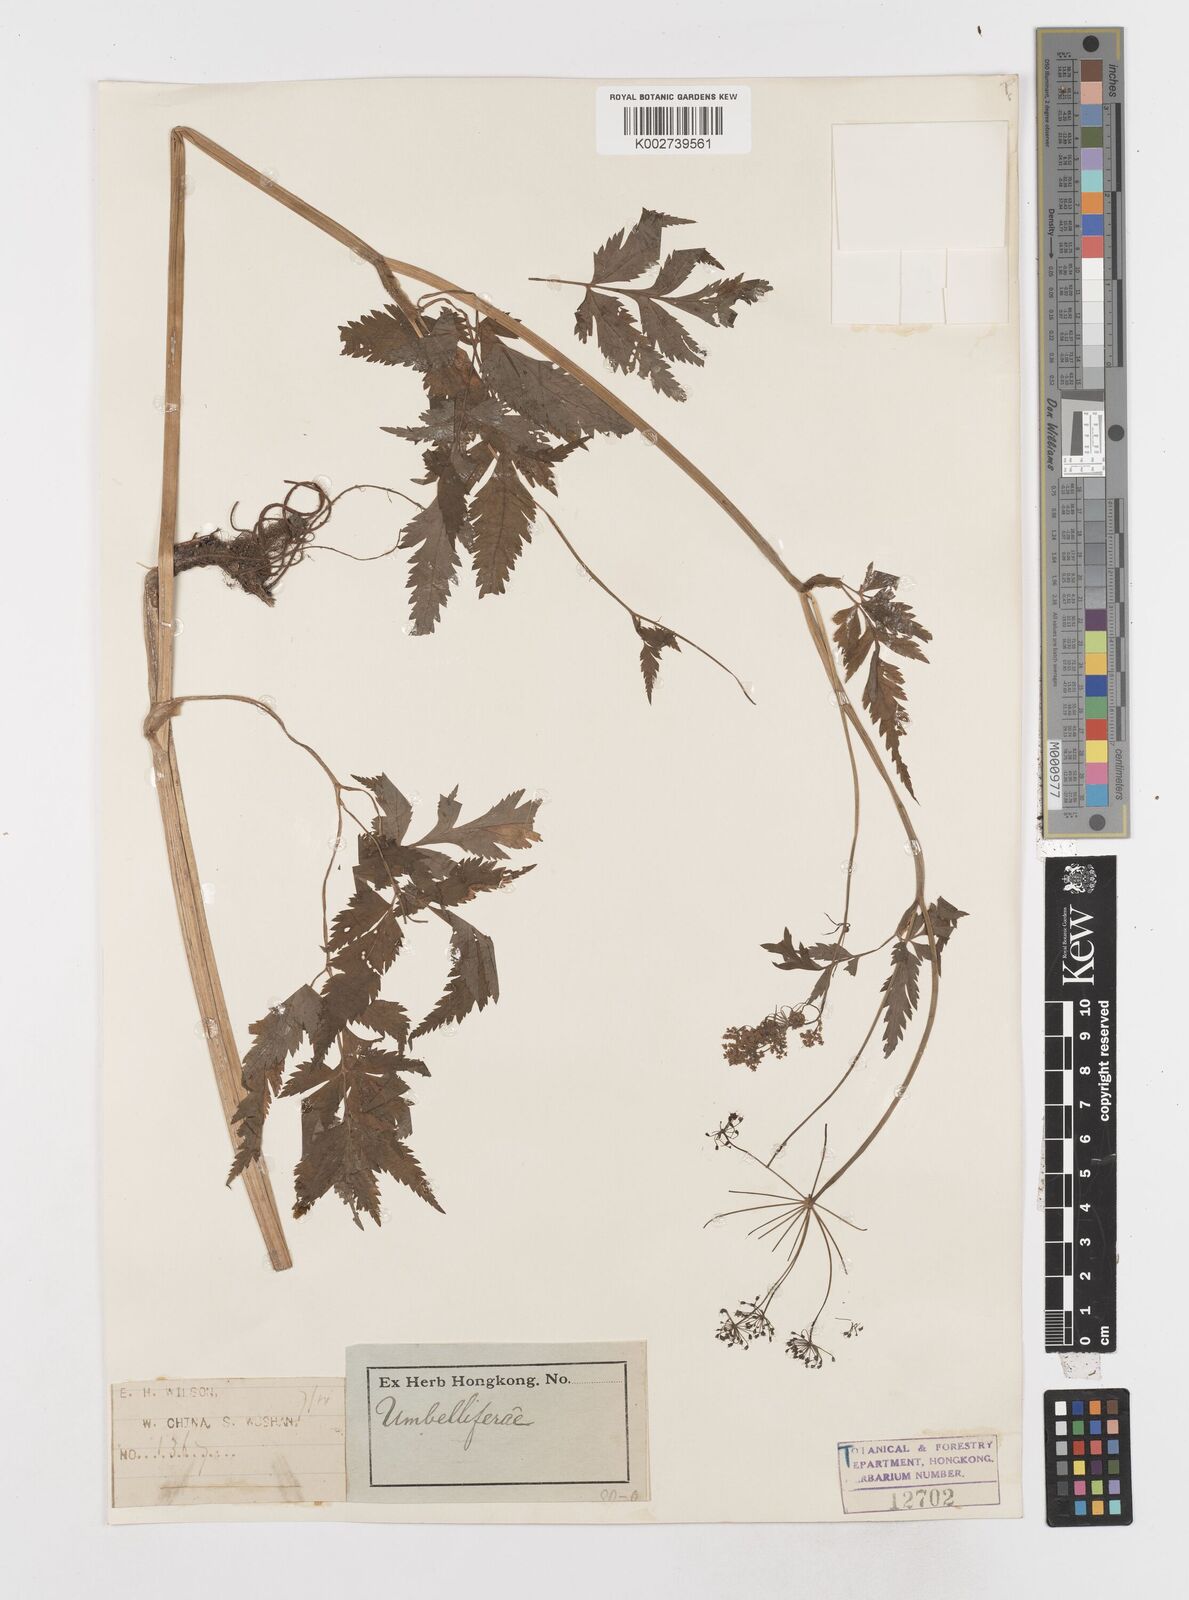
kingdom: Plantae
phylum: Tracheophyta
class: Magnoliopsida
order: Apiales
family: Apiaceae
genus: Oenanthe
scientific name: Oenanthe javanica
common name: Java water-dropwort
